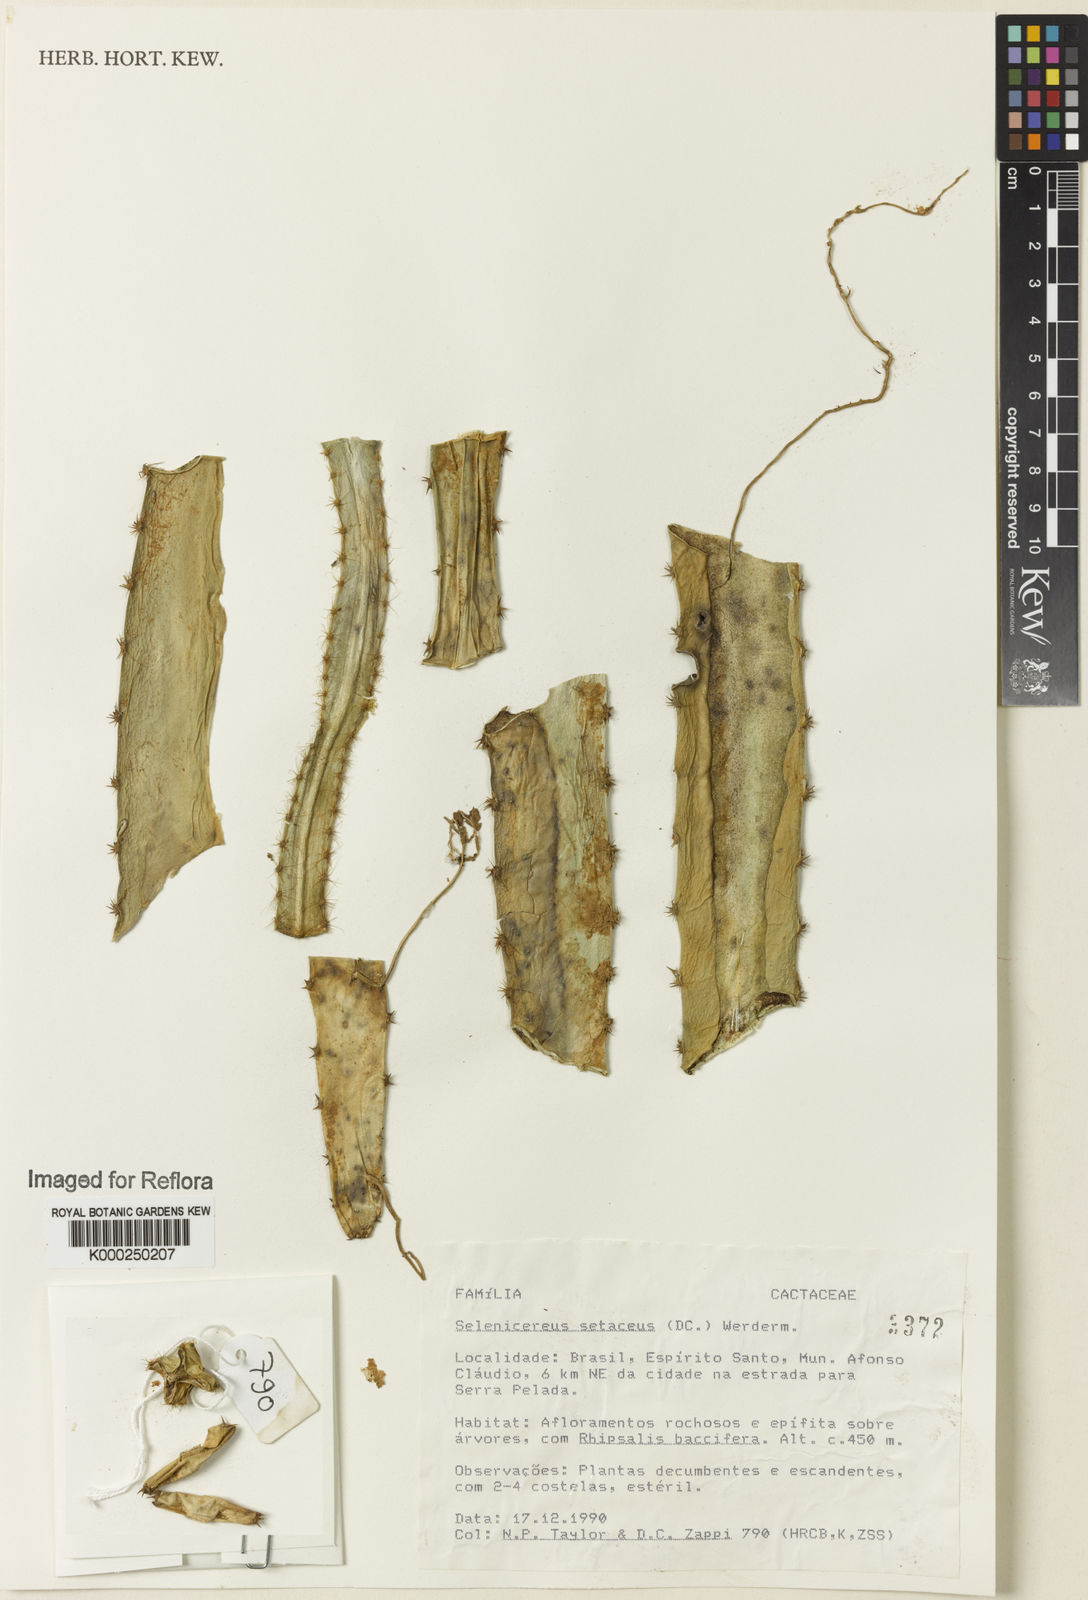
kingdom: Plantae
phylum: Tracheophyta
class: Magnoliopsida
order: Caryophyllales
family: Cactaceae
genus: Selenicereus
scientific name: Selenicereus
